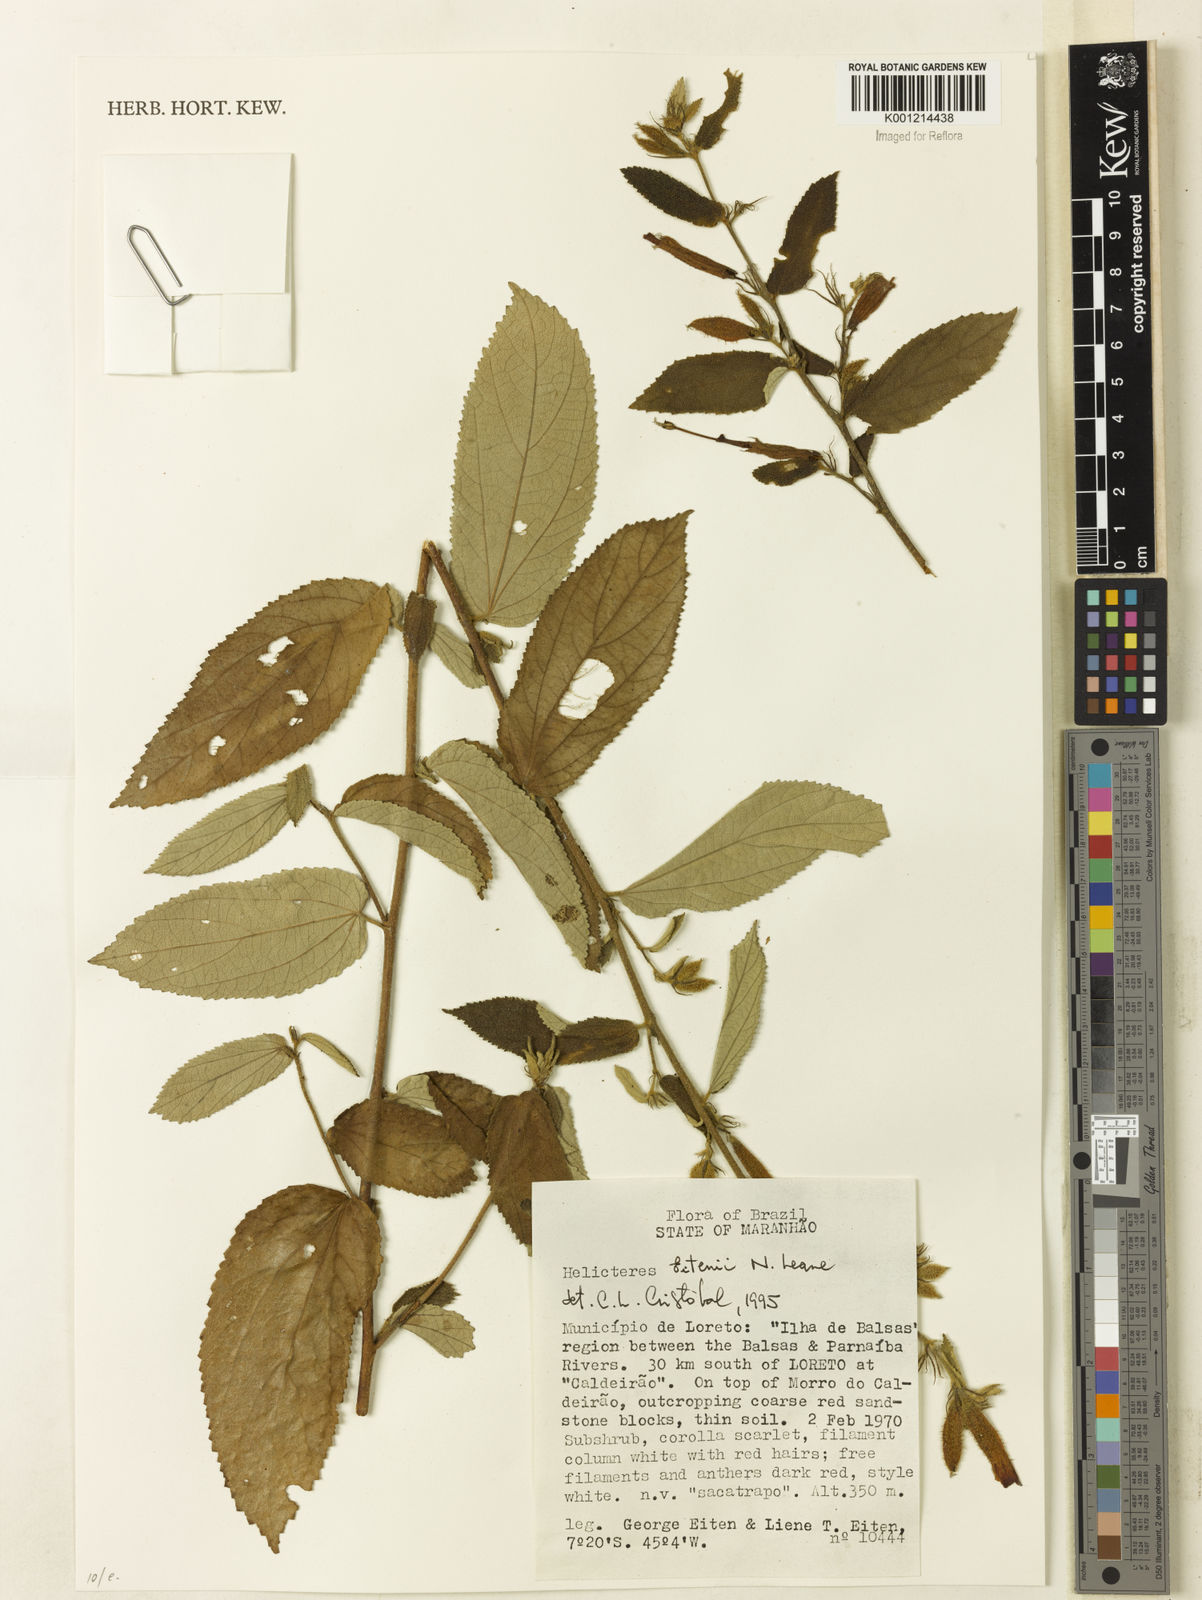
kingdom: Plantae
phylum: Tracheophyta
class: Magnoliopsida
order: Malvales
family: Malvaceae
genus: Helicteres
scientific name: Helicteres eitenii
